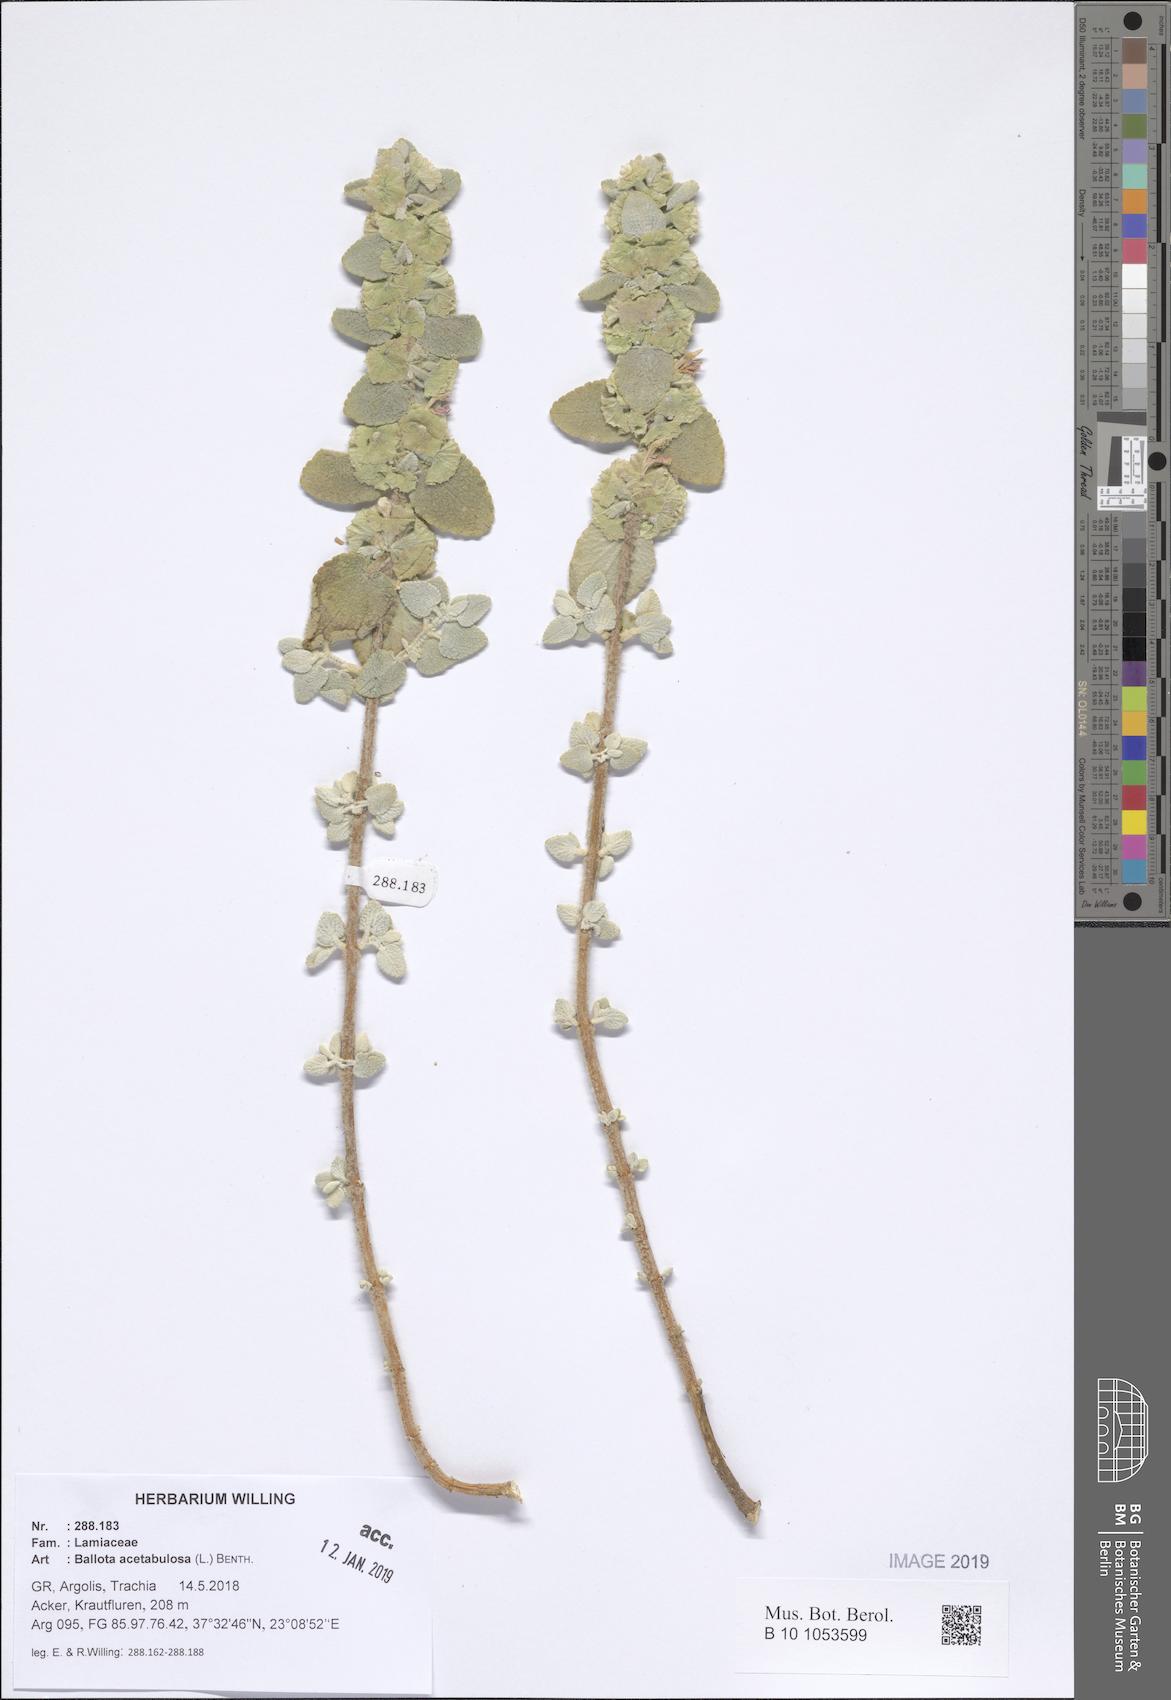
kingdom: Plantae
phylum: Tracheophyta
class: Magnoliopsida
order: Lamiales
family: Lamiaceae
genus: Pseudodictamnus
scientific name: Pseudodictamnus acetabulosus
